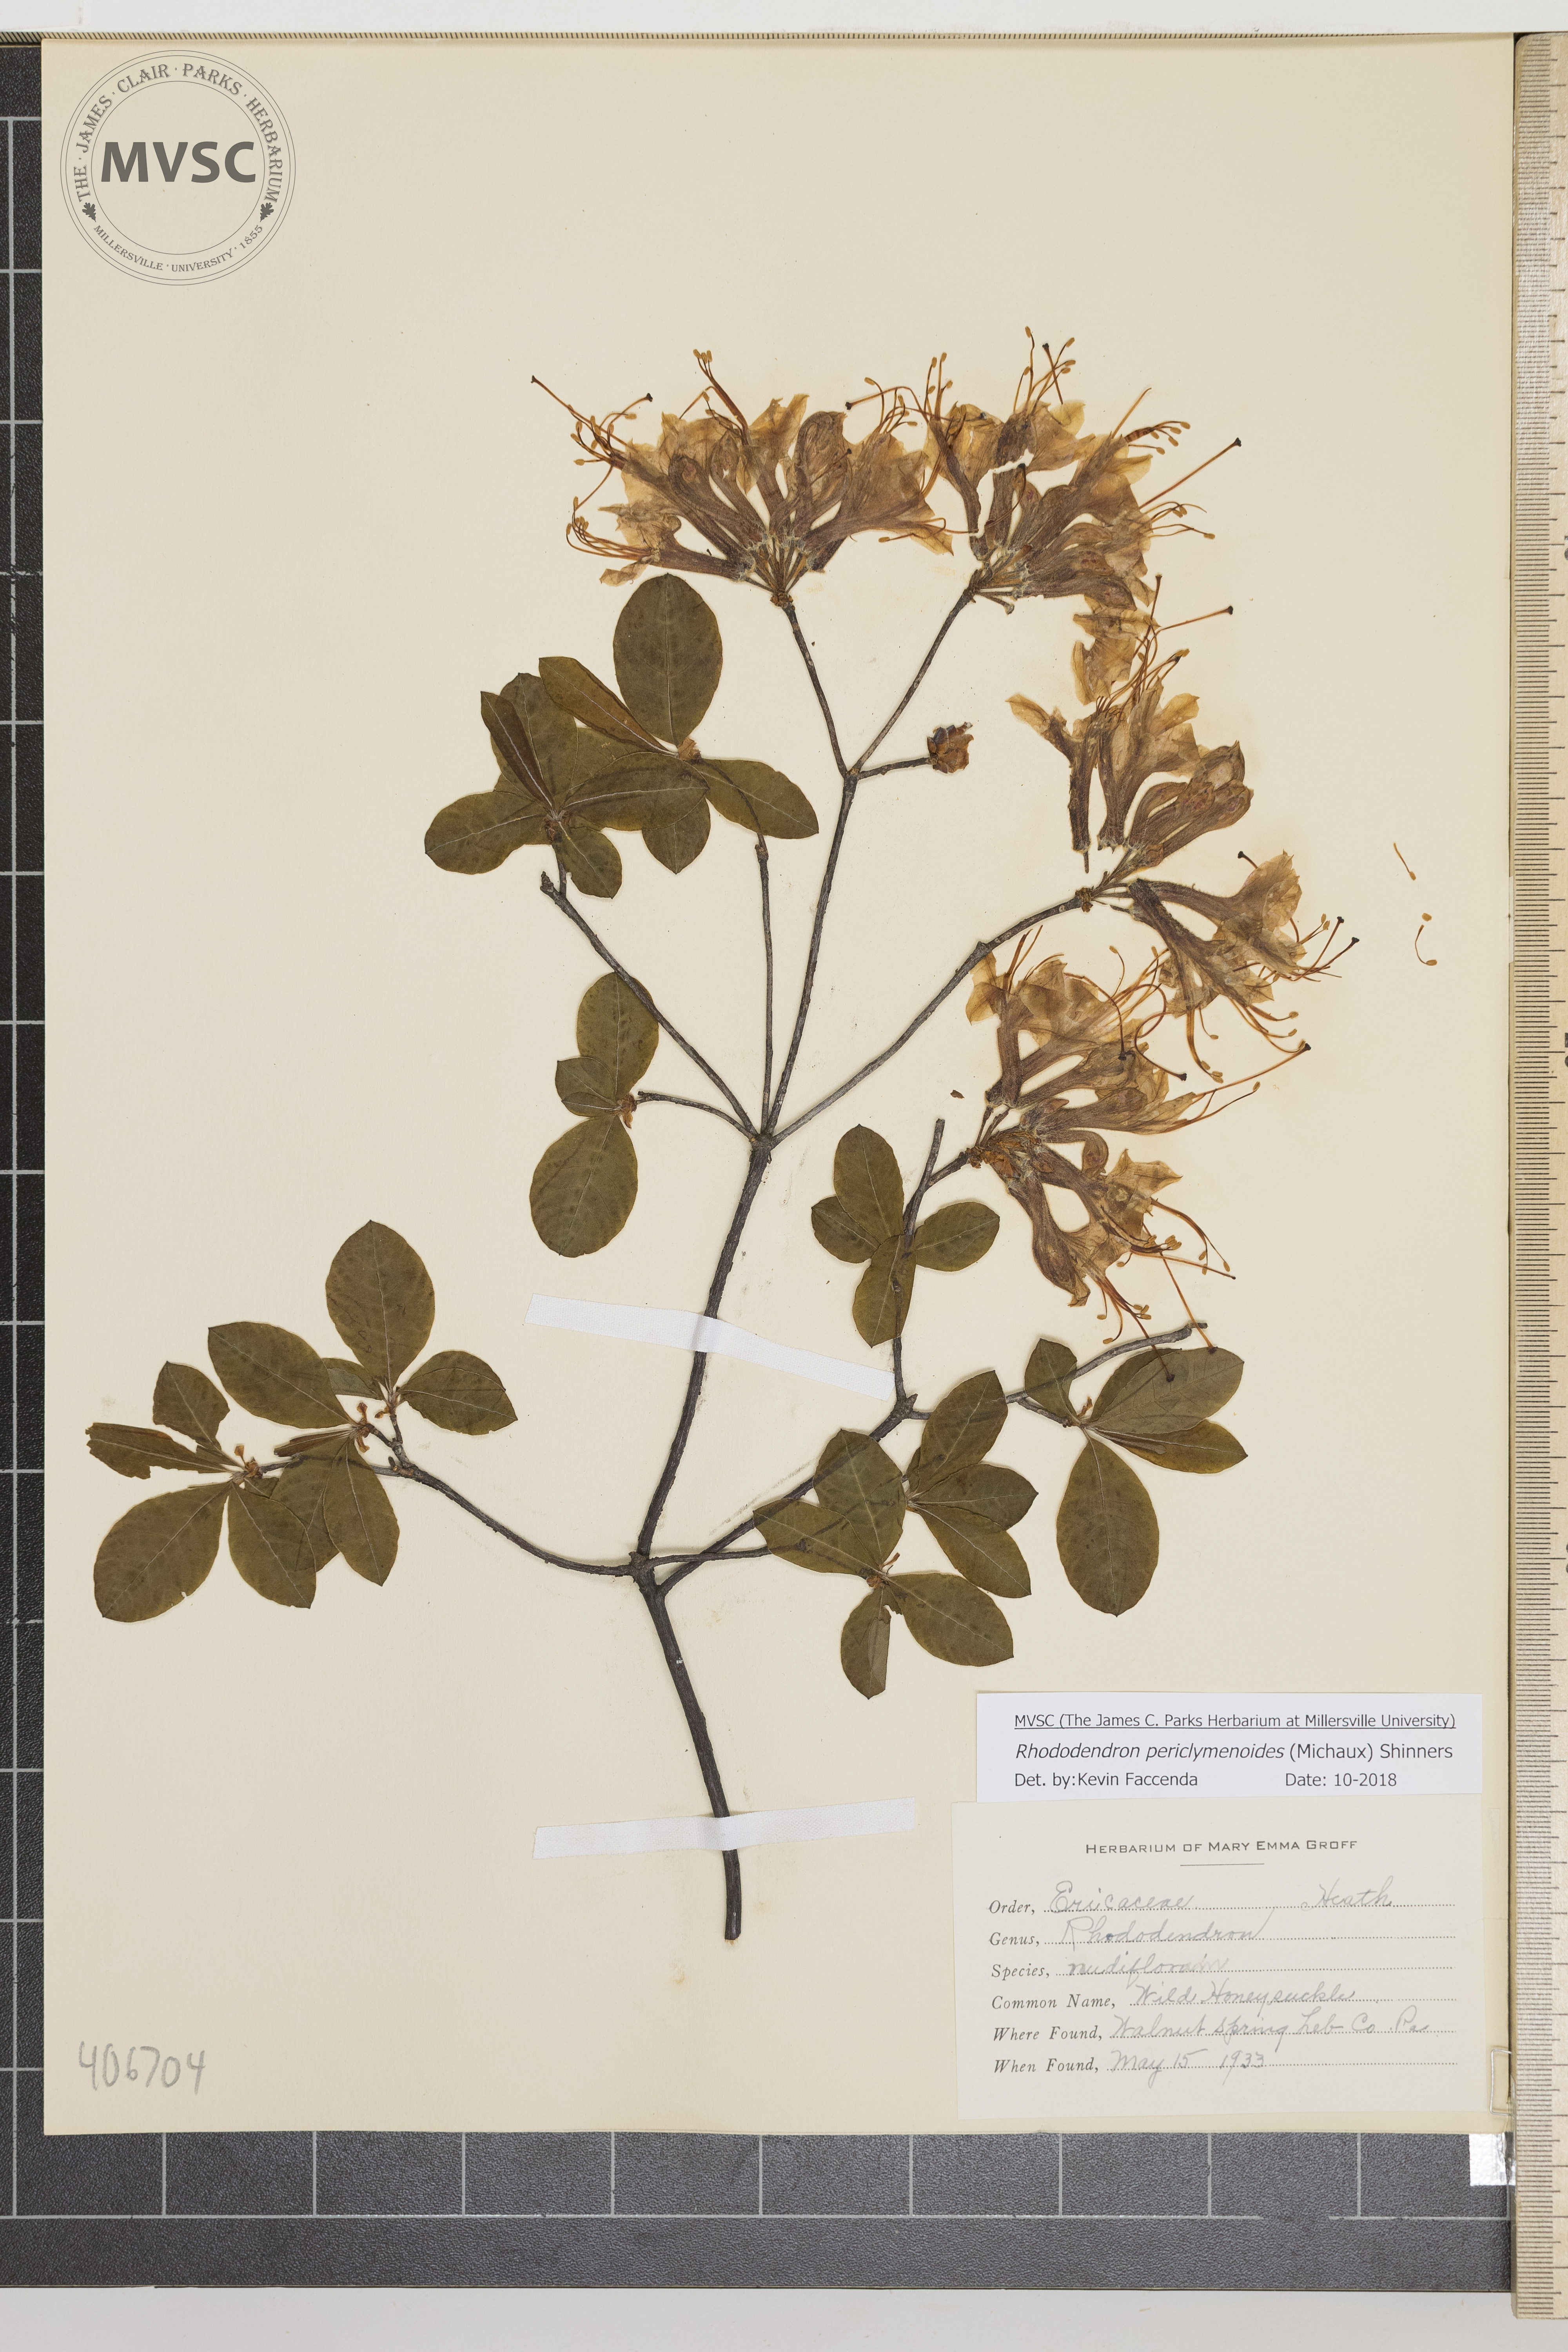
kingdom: Plantae
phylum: Tracheophyta
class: Magnoliopsida
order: Ericales
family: Ericaceae
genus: Rhododendron
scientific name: Rhododendron periclymenoides
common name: Wild Honeysuckle
